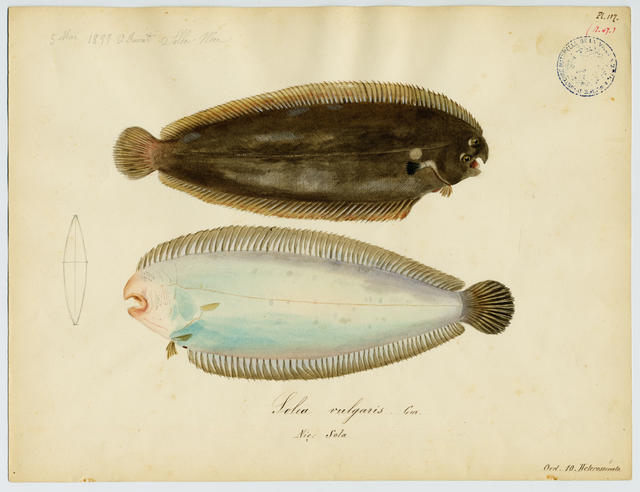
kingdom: Animalia
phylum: Chordata
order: Pleuronectiformes
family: Soleidae
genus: Solea
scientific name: Solea solea
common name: Sole
